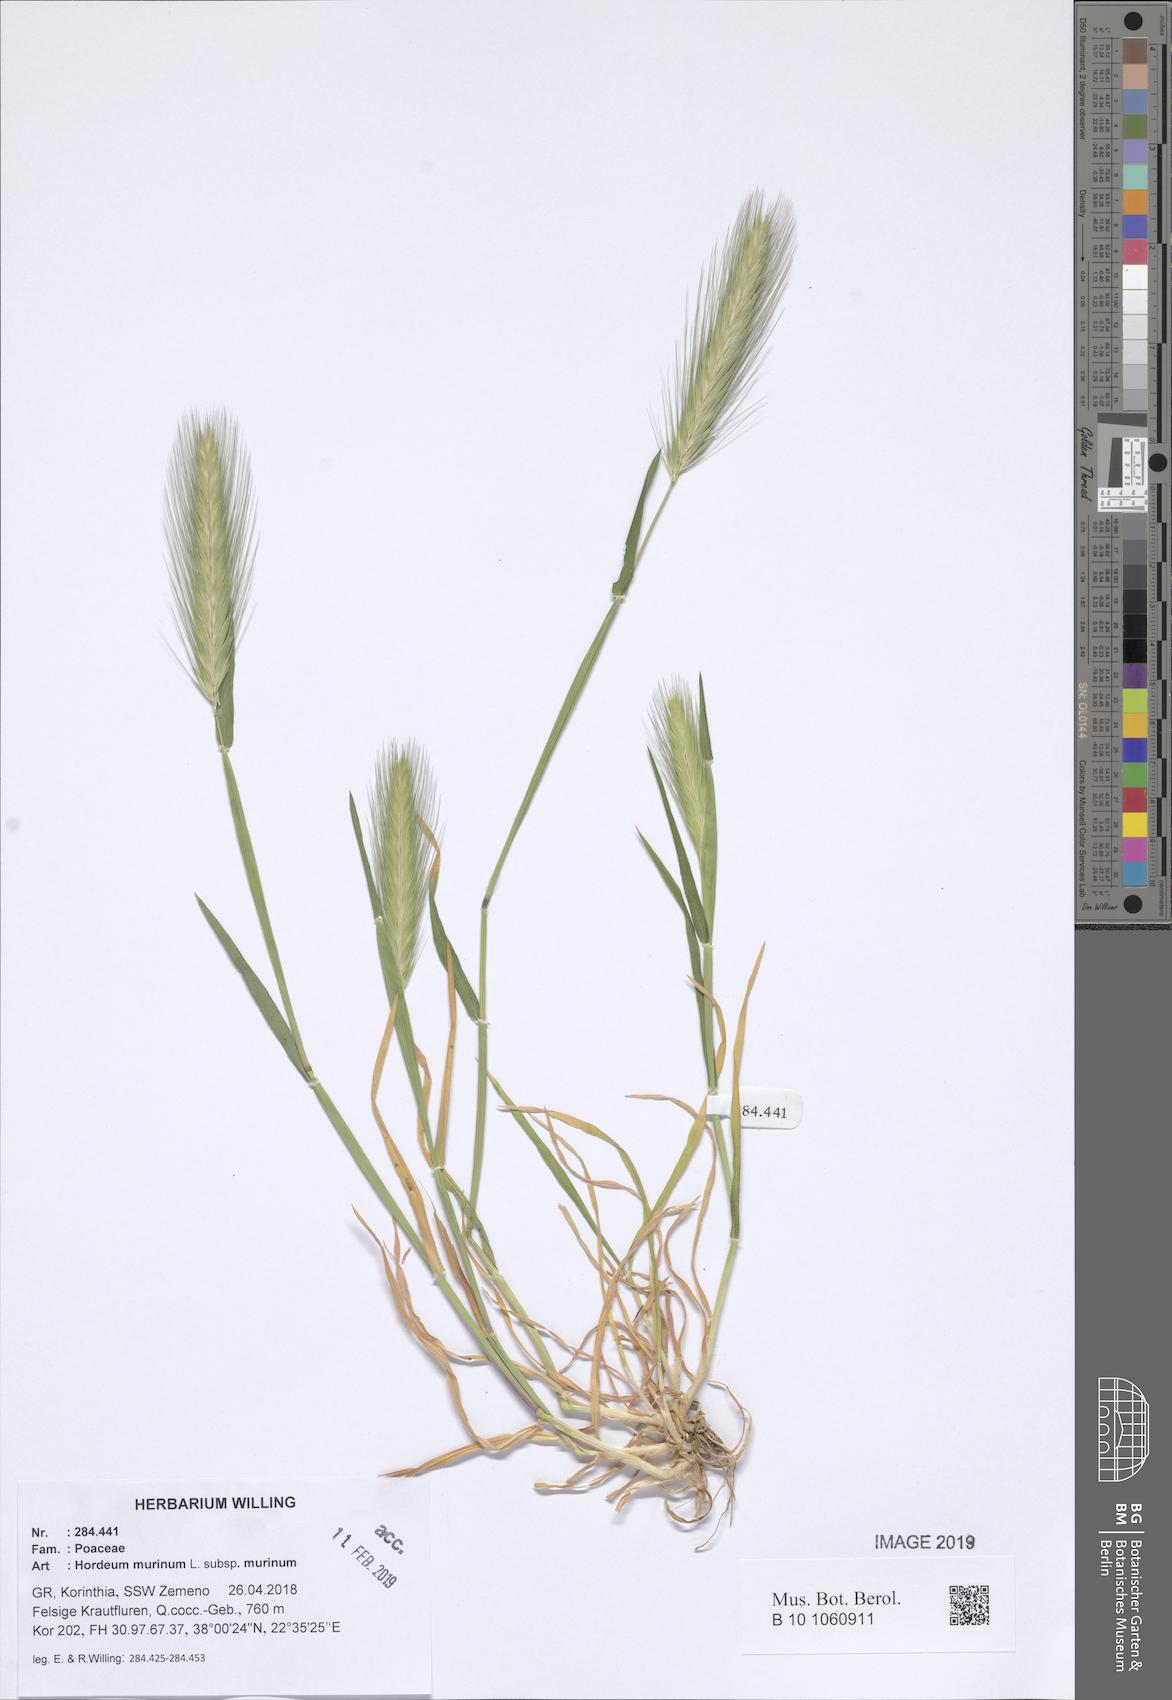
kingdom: Plantae
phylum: Tracheophyta
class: Liliopsida
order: Poales
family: Poaceae
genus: Hordeum
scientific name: Hordeum murinum
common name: Wall barley
